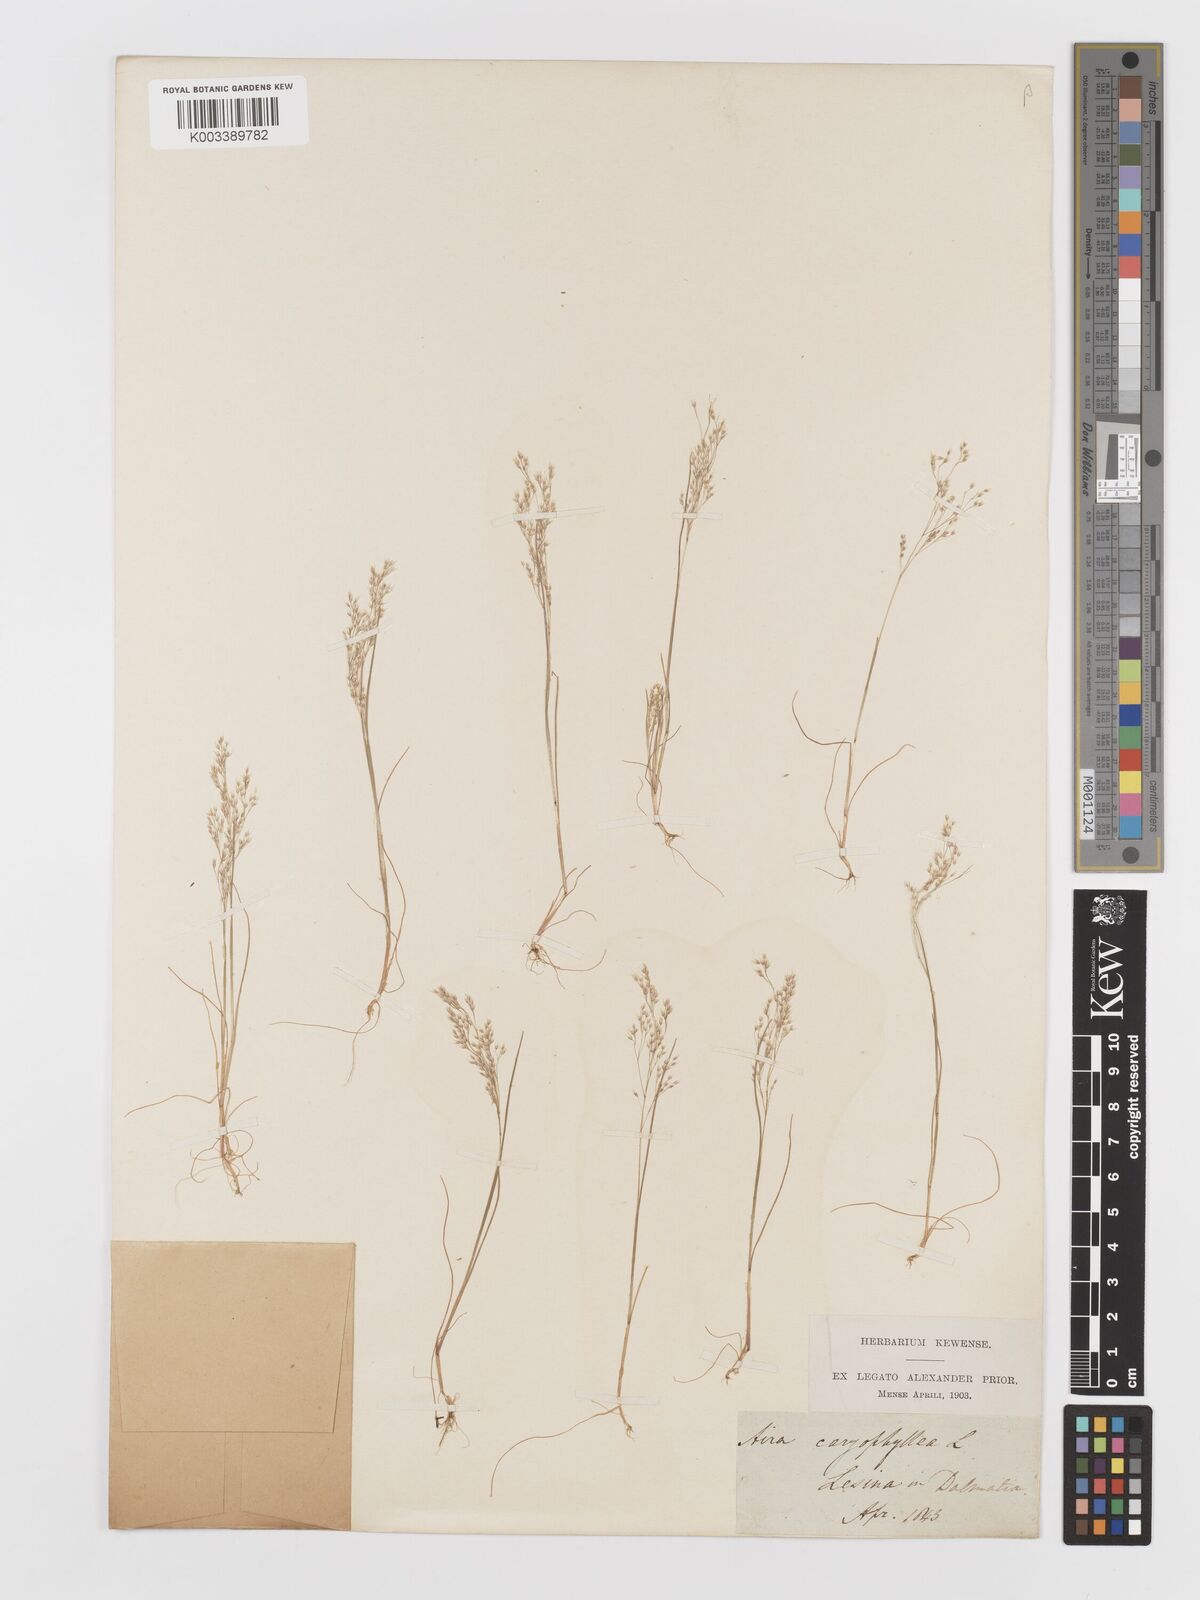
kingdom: Plantae
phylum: Tracheophyta
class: Liliopsida
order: Poales
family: Poaceae
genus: Aira
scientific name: Aira cupaniana
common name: Silver hairgrass
